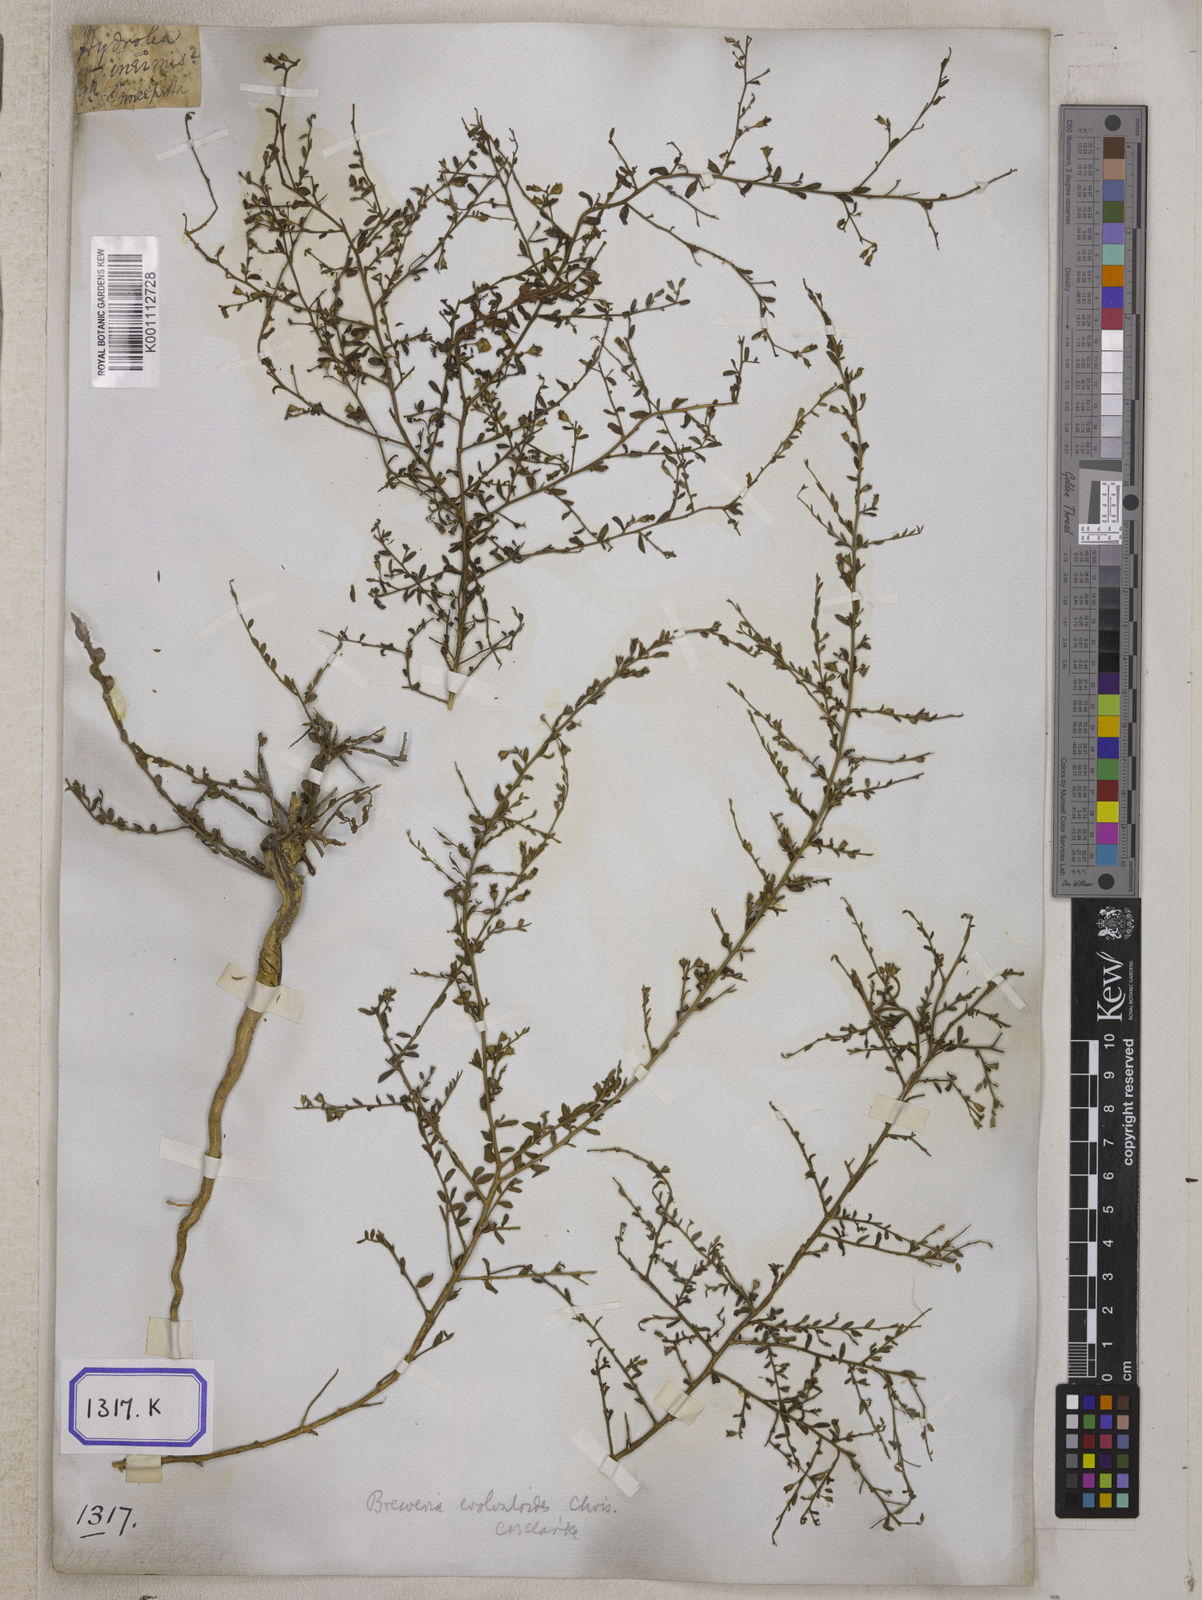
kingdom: Plantae
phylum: Tracheophyta
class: Magnoliopsida
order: Solanales
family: Convolvulaceae
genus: Evolvulus
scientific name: Evolvulus alsinoides
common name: Slender dwarf morning-glory
